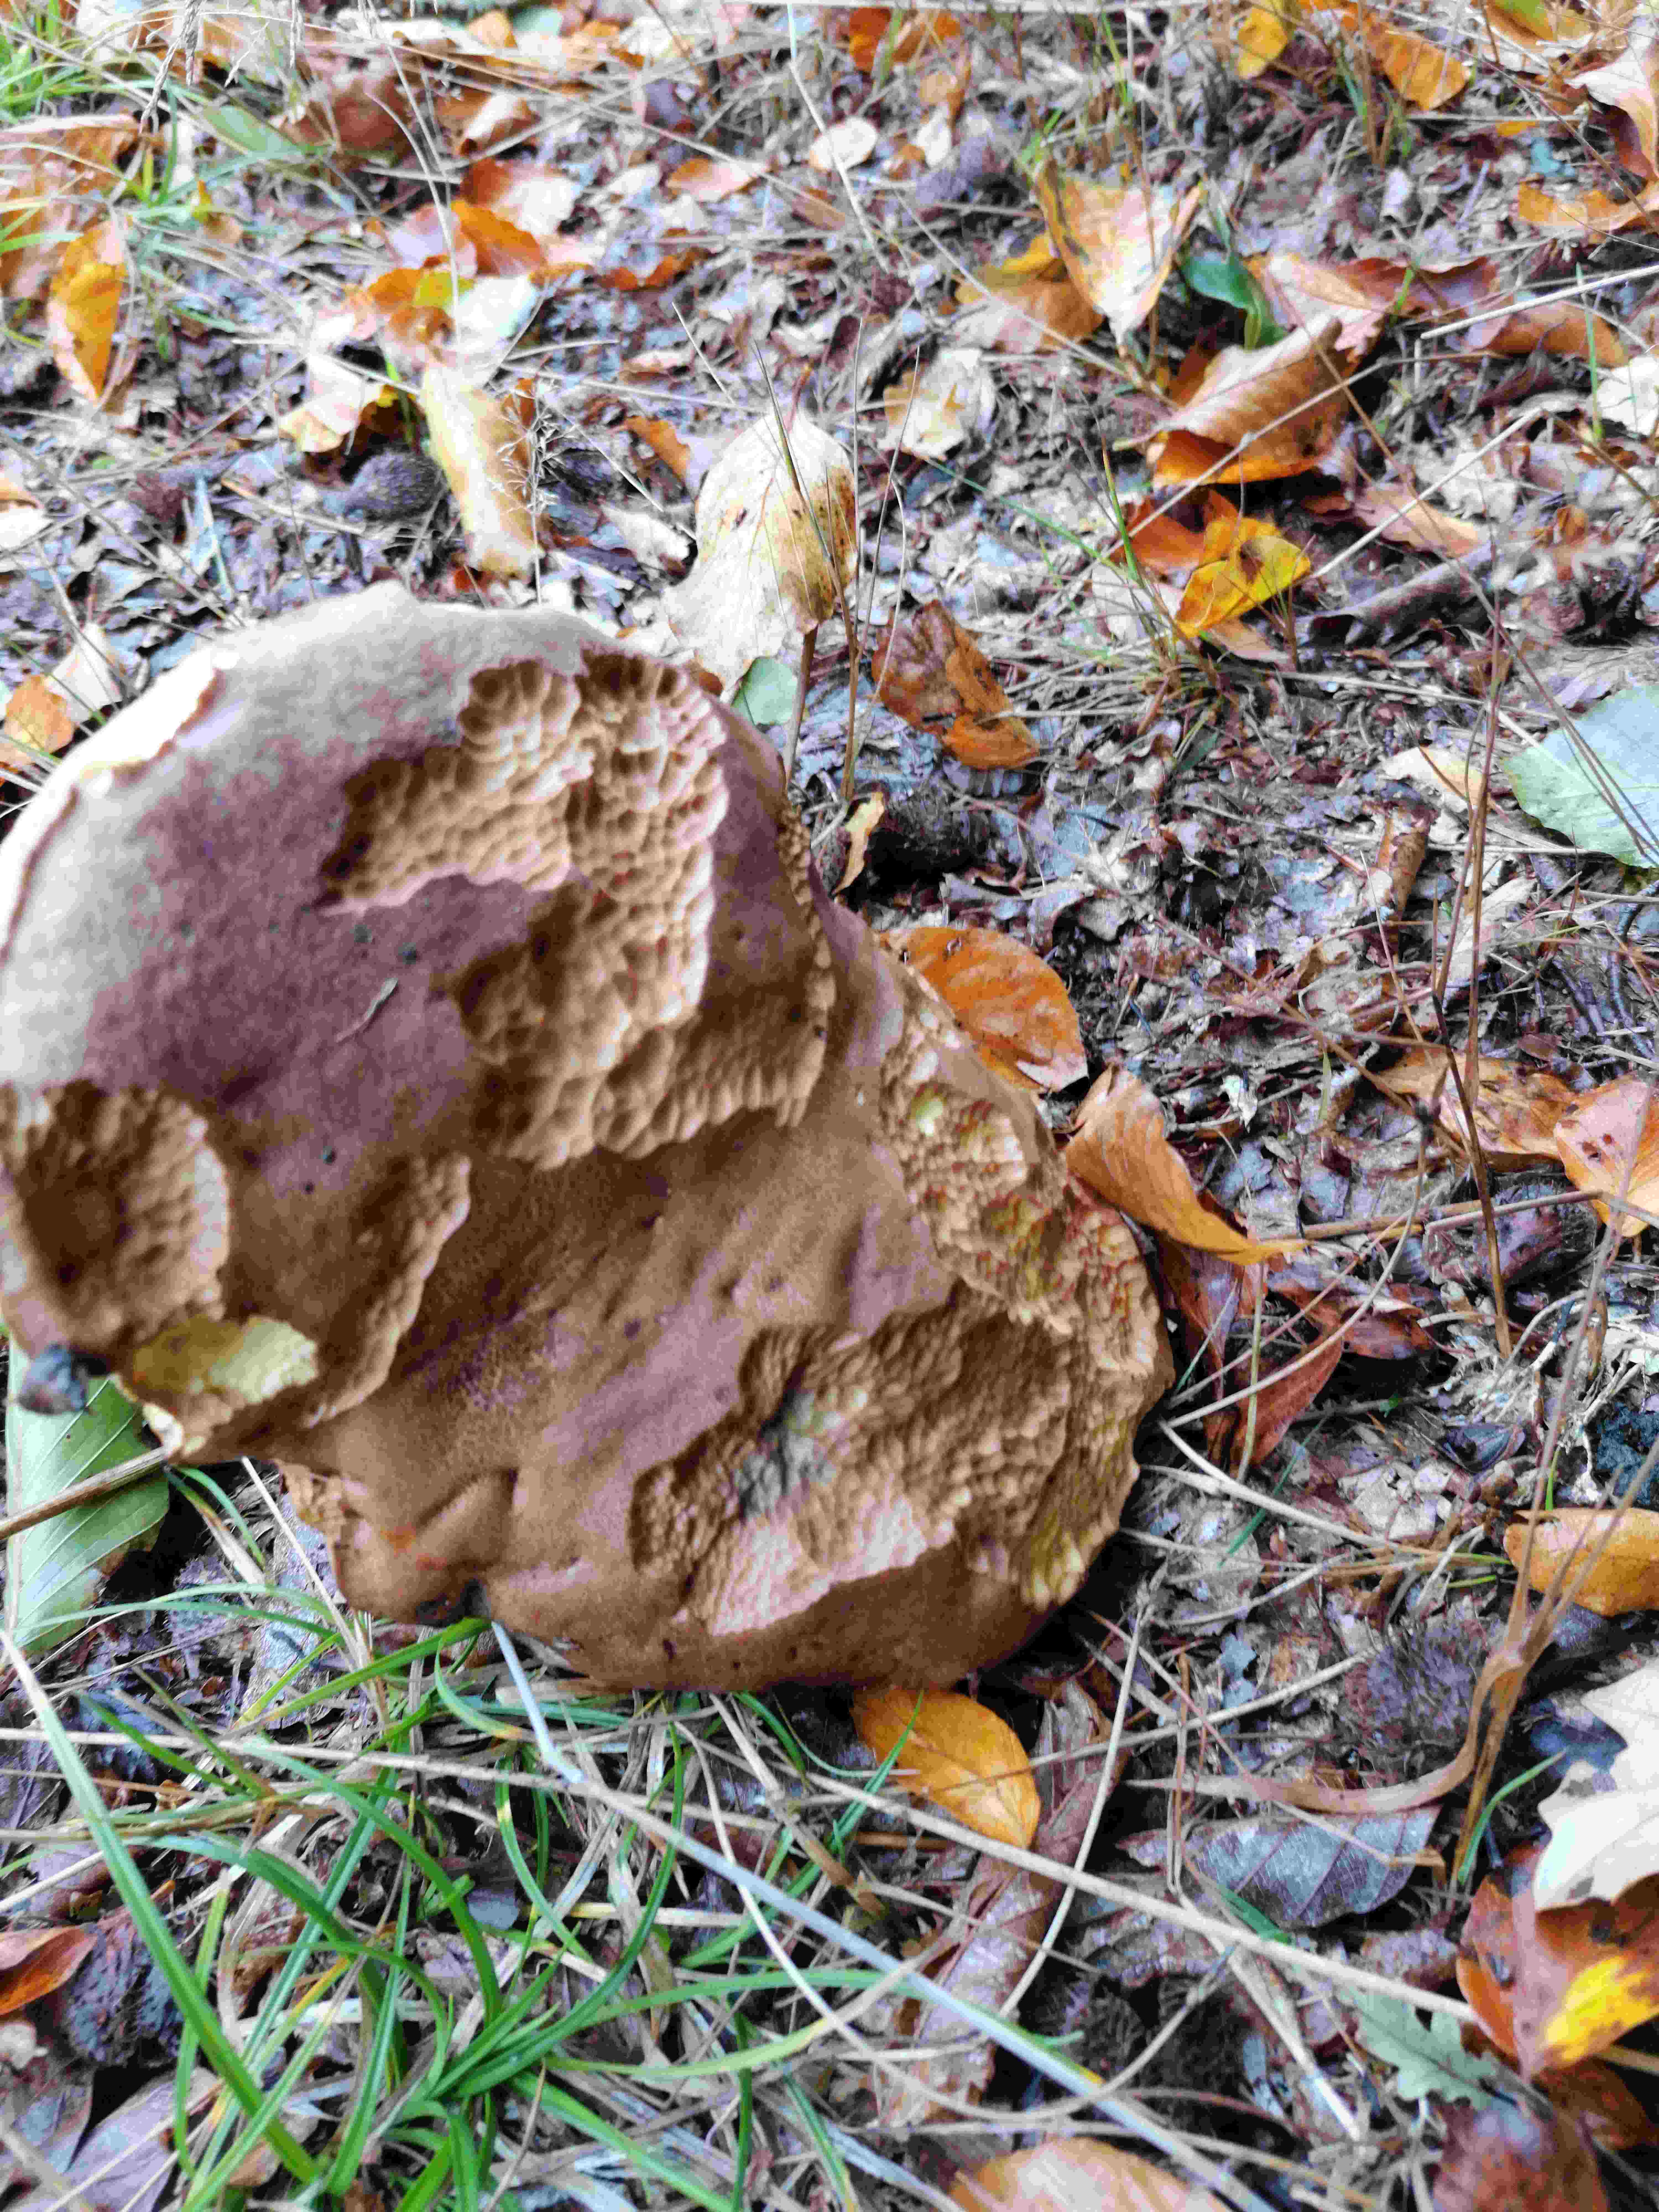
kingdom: Fungi
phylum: Basidiomycota
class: Agaricomycetes
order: Boletales
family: Boletaceae
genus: Butyriboletus
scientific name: Butyriboletus appendiculatus
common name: tenstokket rørhat
